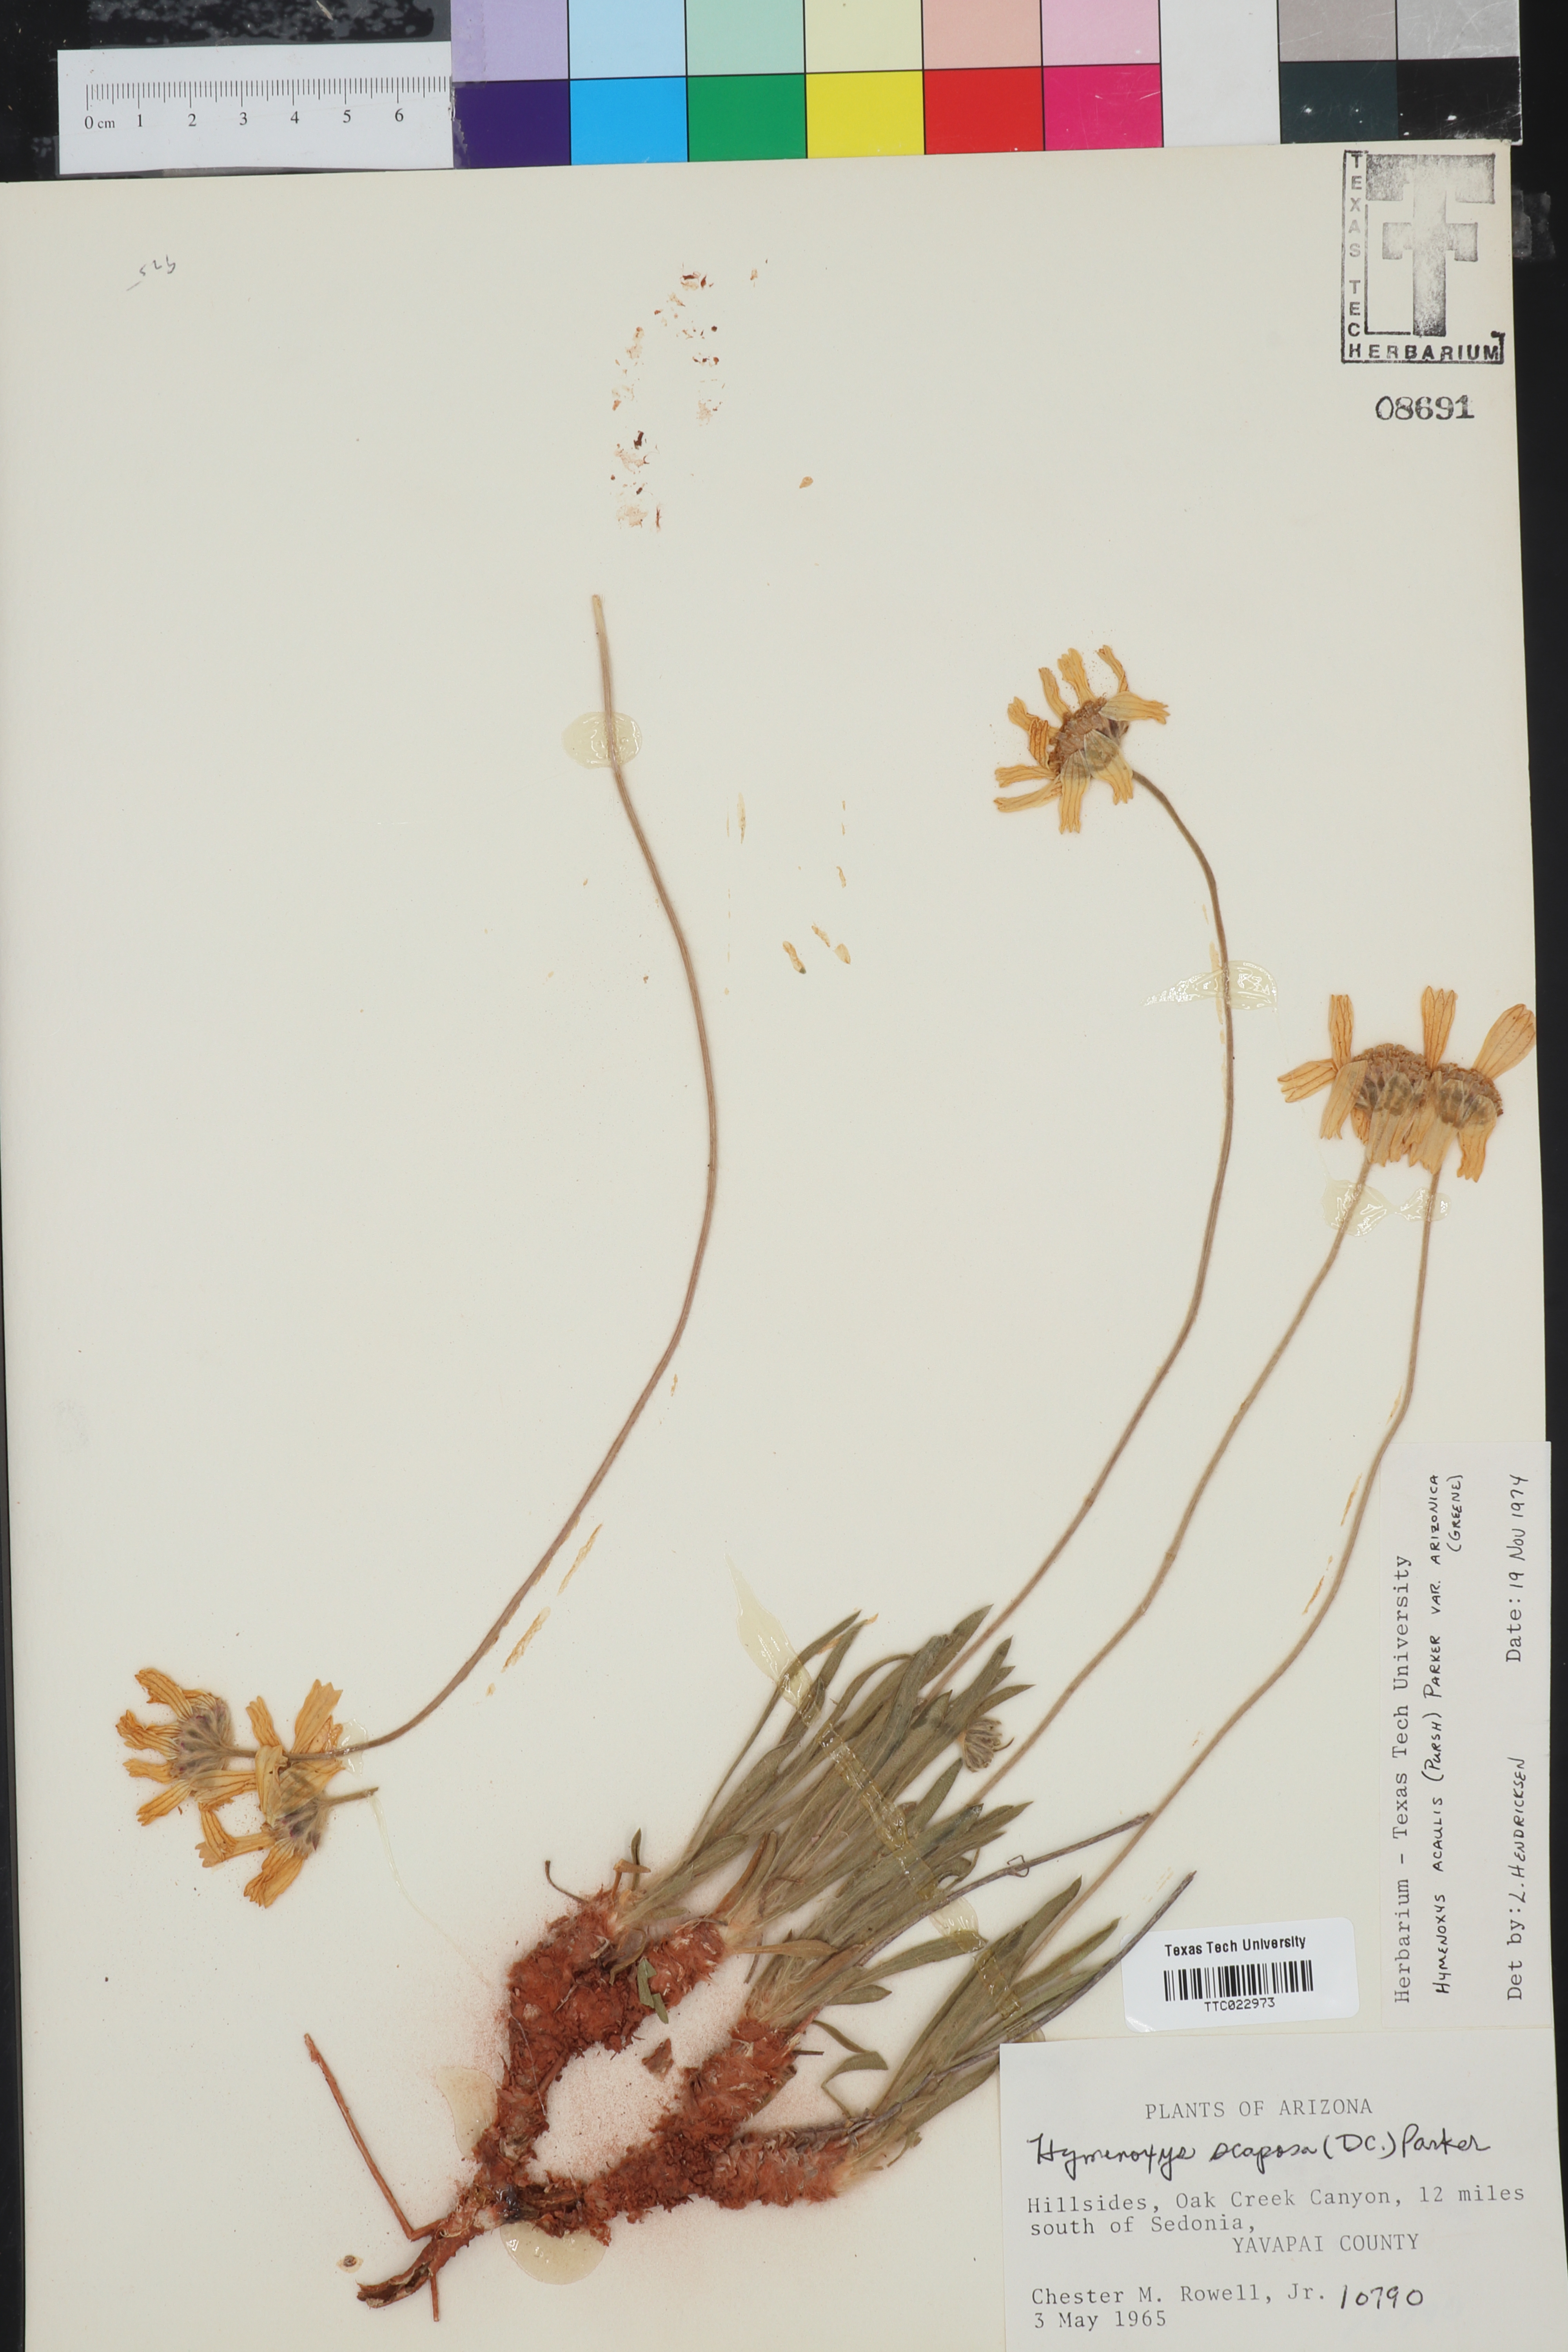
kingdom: Plantae
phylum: Tracheophyta
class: Magnoliopsida
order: Asterales
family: Asteraceae
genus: Tetraneuris
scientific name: Tetraneuris acaulis
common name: Butte marigold
